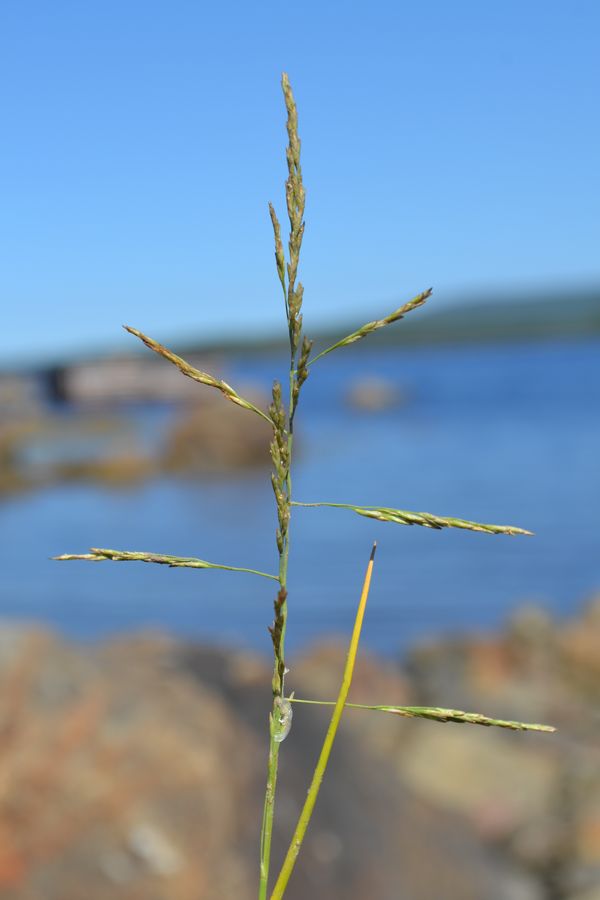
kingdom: Plantae
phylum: Tracheophyta
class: Liliopsida
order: Poales
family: Poaceae
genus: Puccinellia
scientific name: Puccinellia distans
